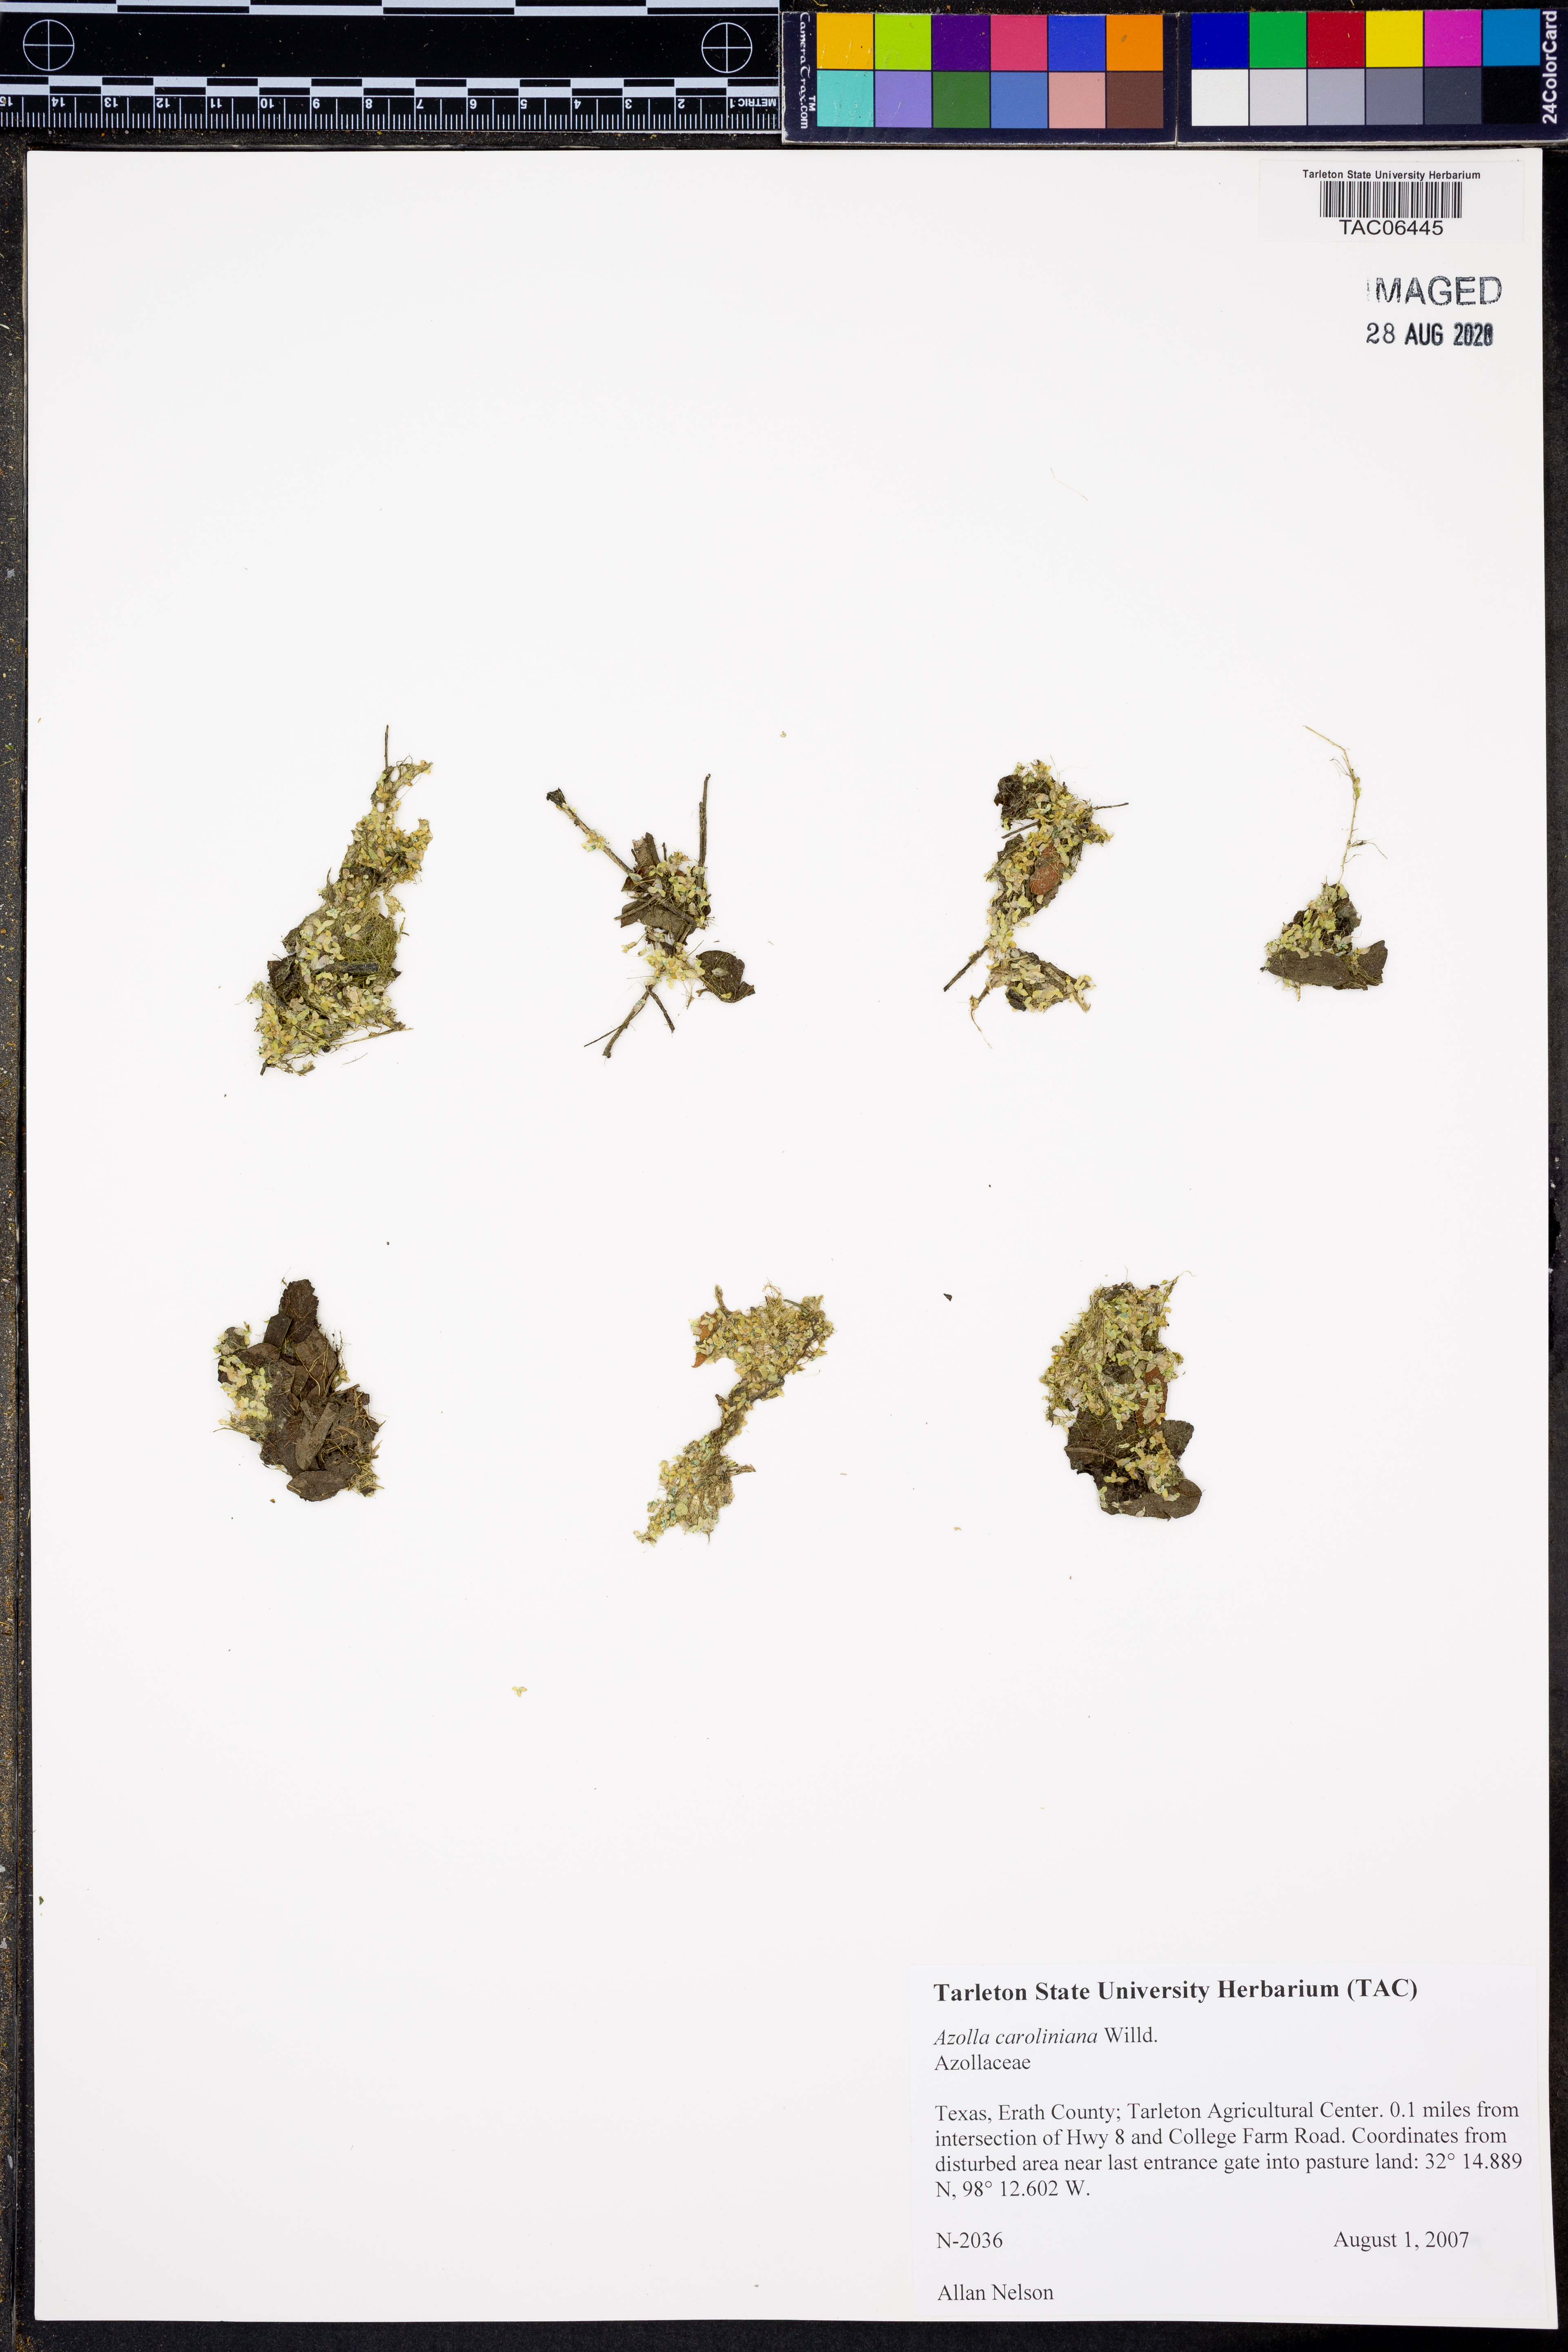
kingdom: Plantae
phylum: Tracheophyta
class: Polypodiopsida
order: Salviniales
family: Salviniaceae
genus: Azolla
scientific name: Azolla caroliniana
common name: Carolina mosquitofern
